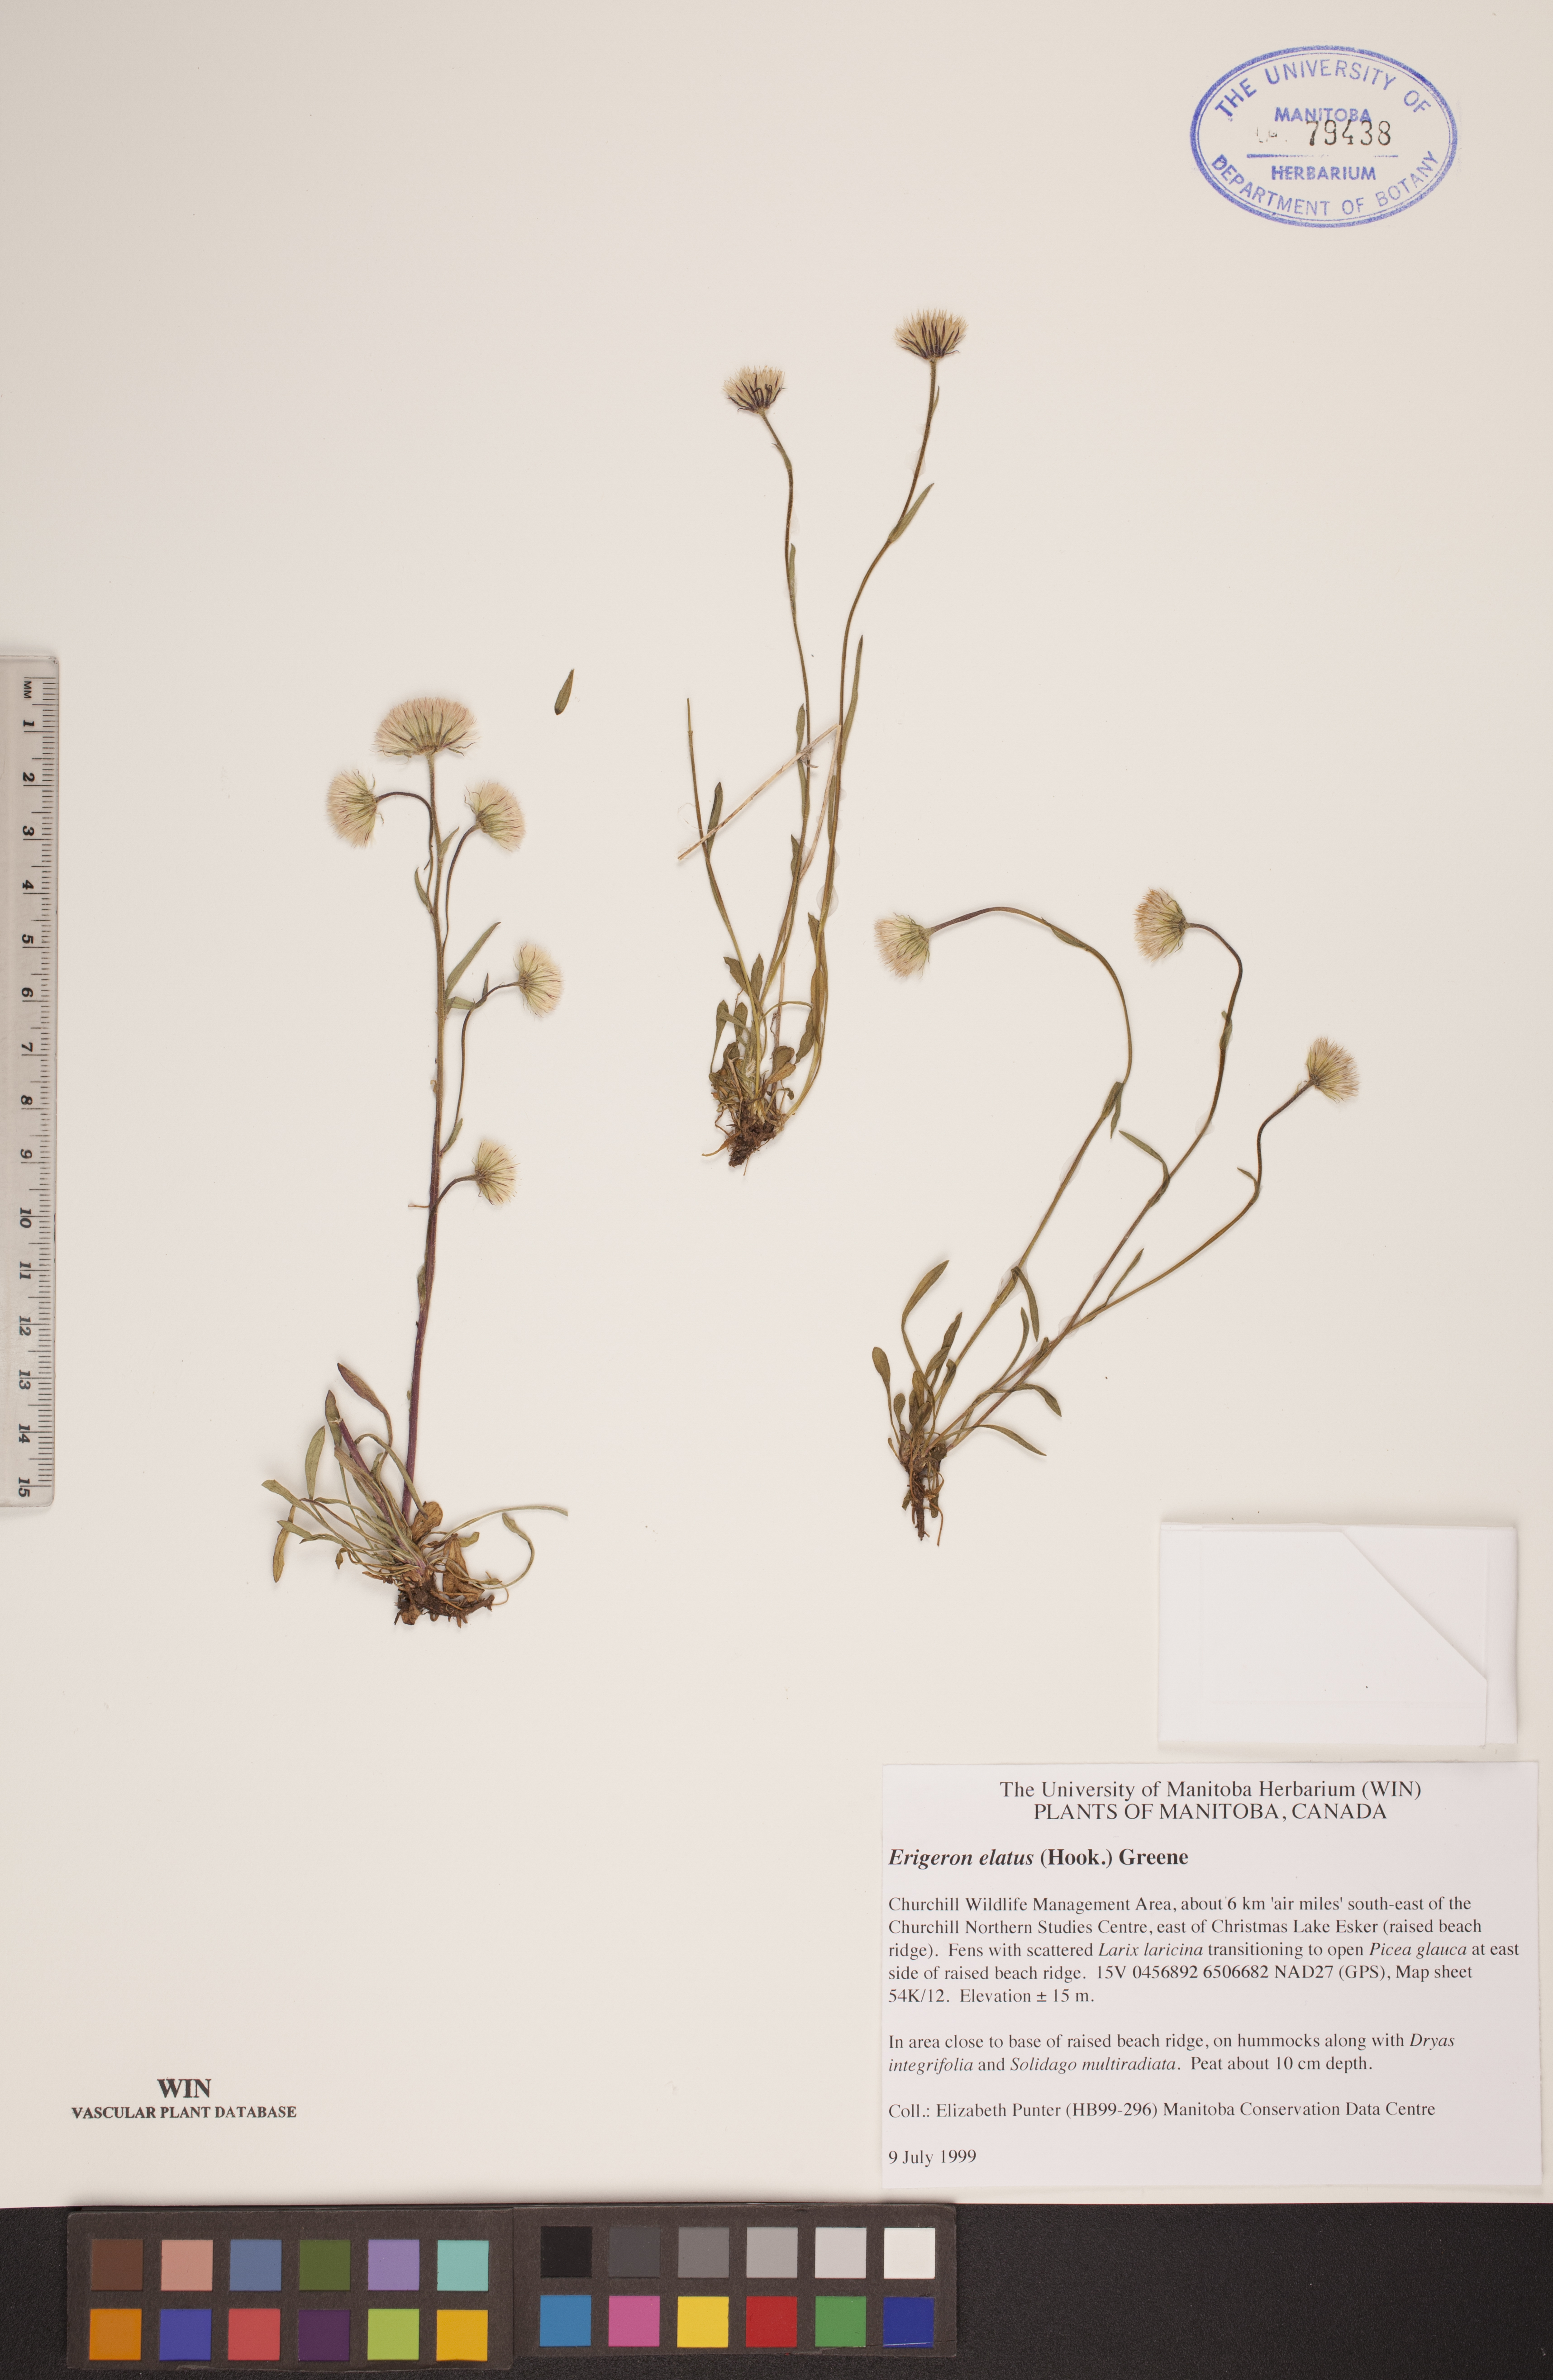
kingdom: Plantae
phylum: Tracheophyta
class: Magnoliopsida
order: Asterales
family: Asteraceae
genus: Erigeron
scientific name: Erigeron elatus
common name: Swamp fleabane
